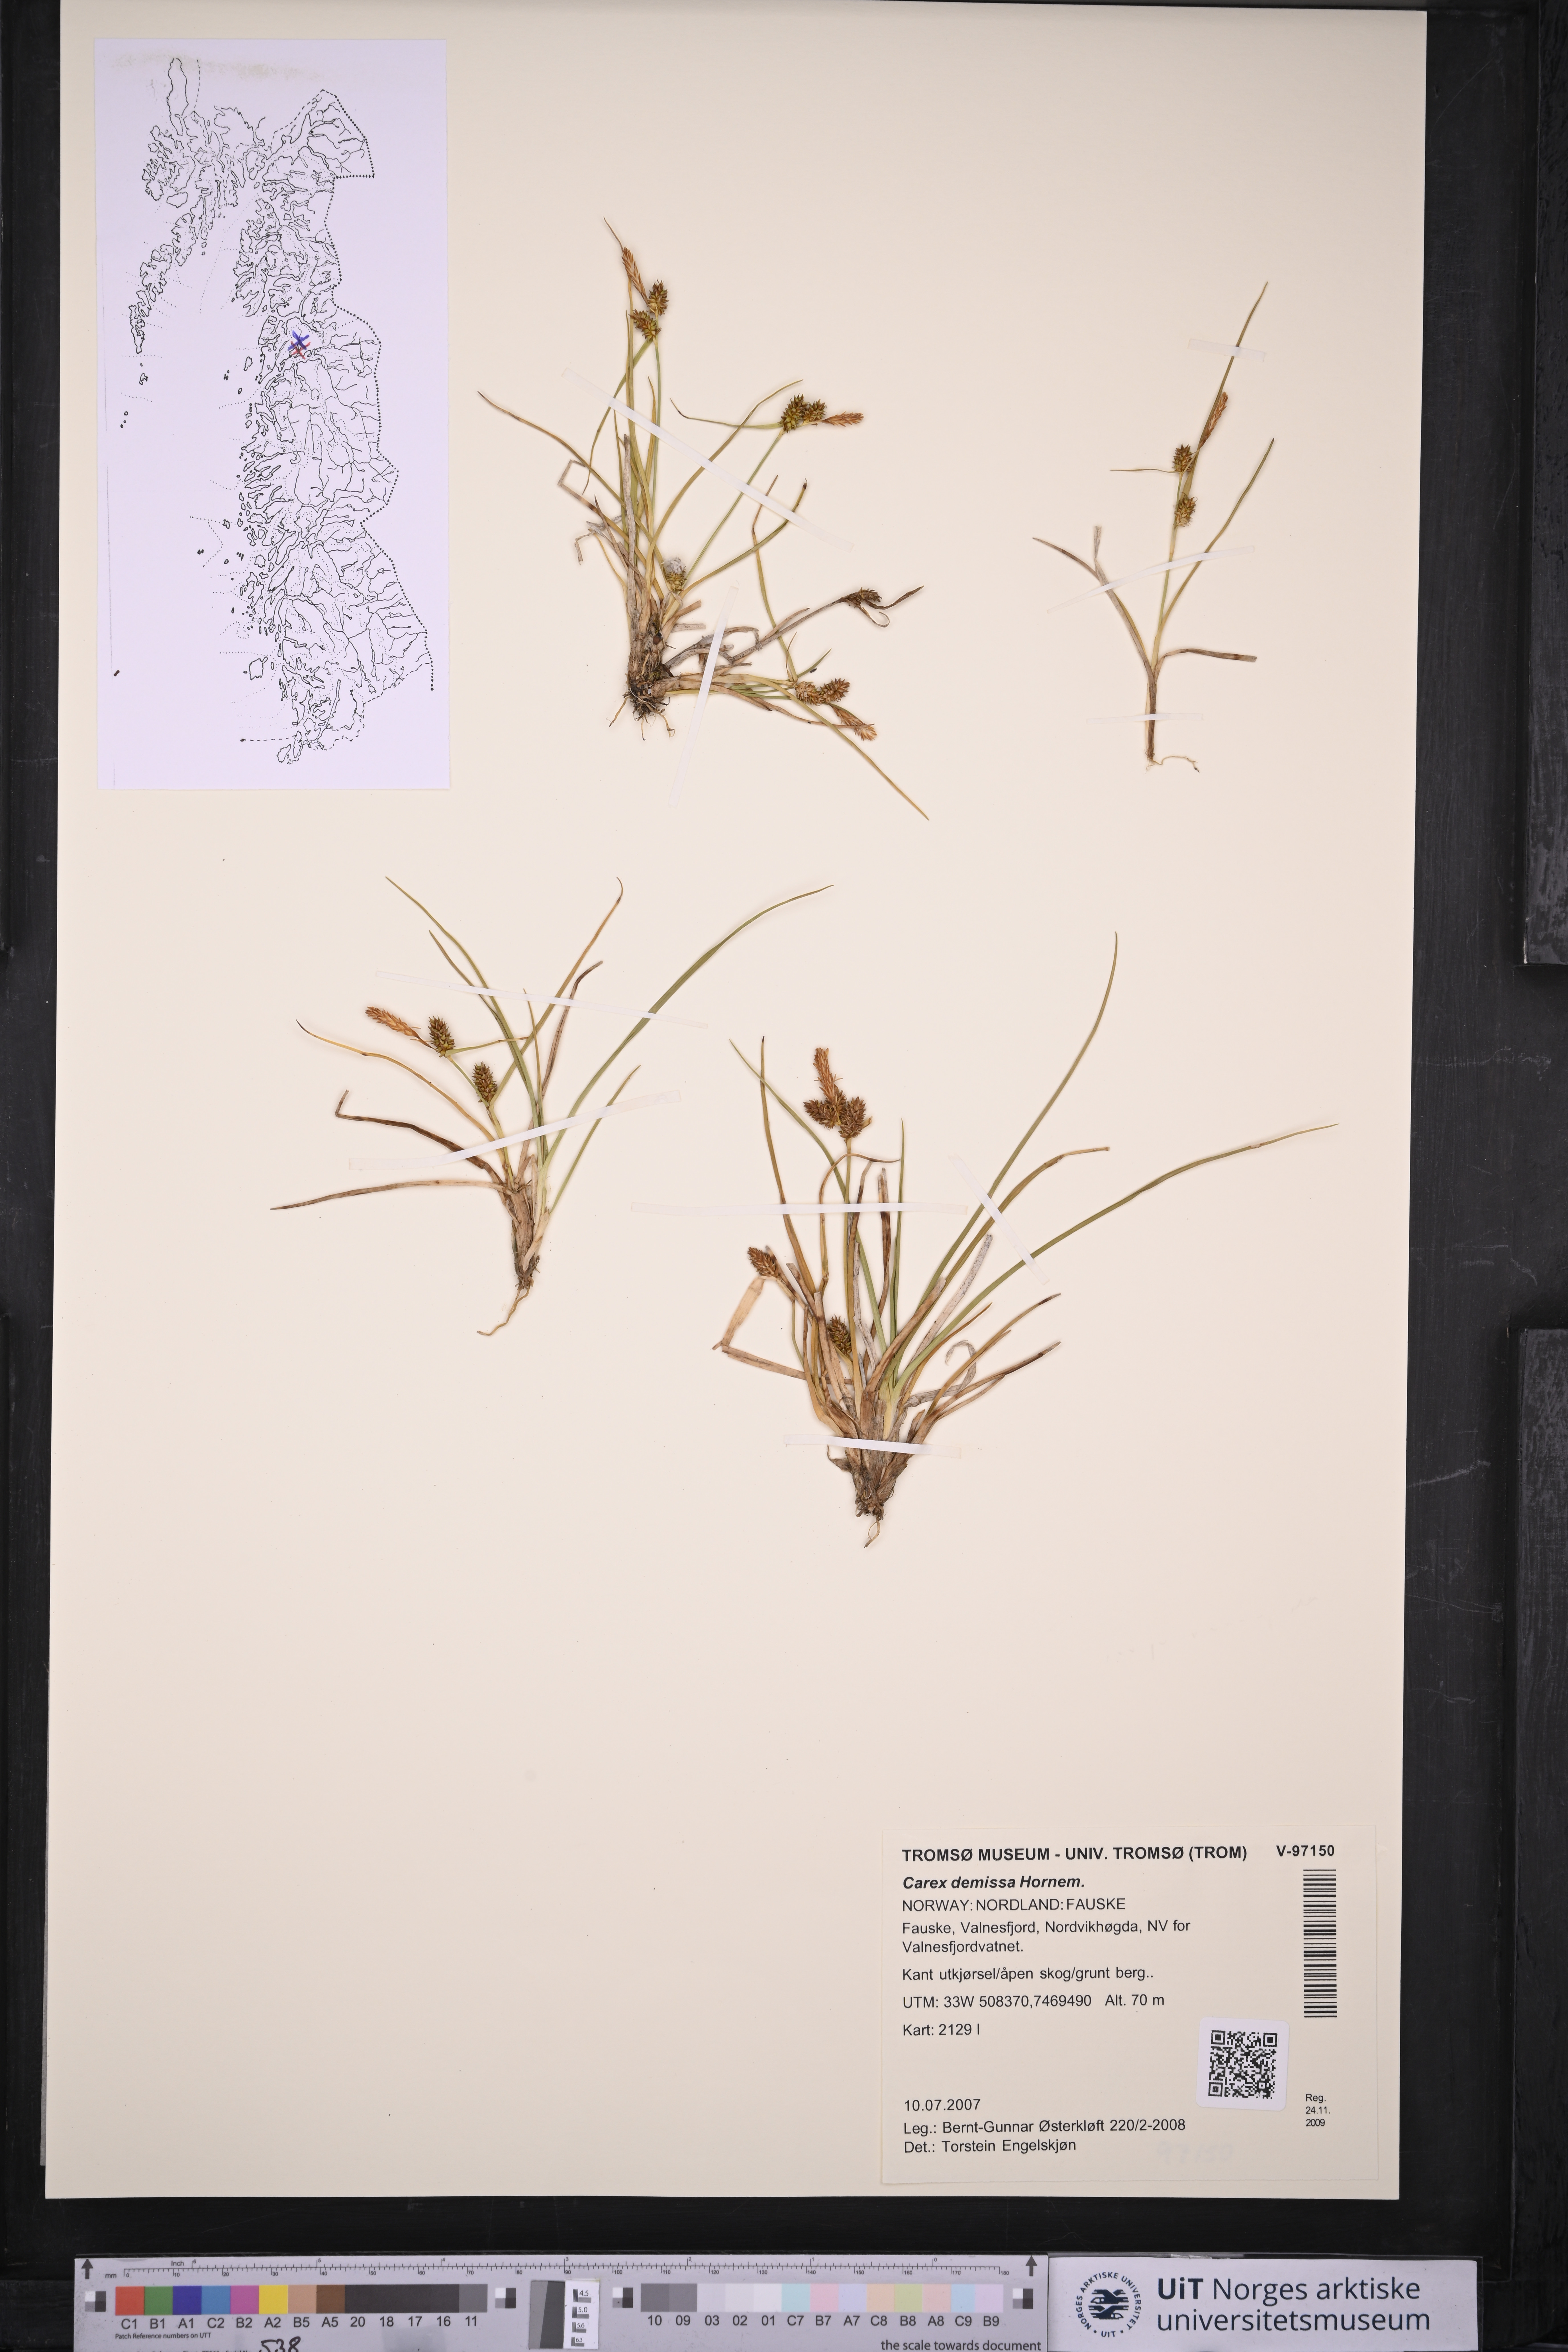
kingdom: Plantae
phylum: Tracheophyta
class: Liliopsida
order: Poales
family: Cyperaceae
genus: Carex
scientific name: Carex demissa
